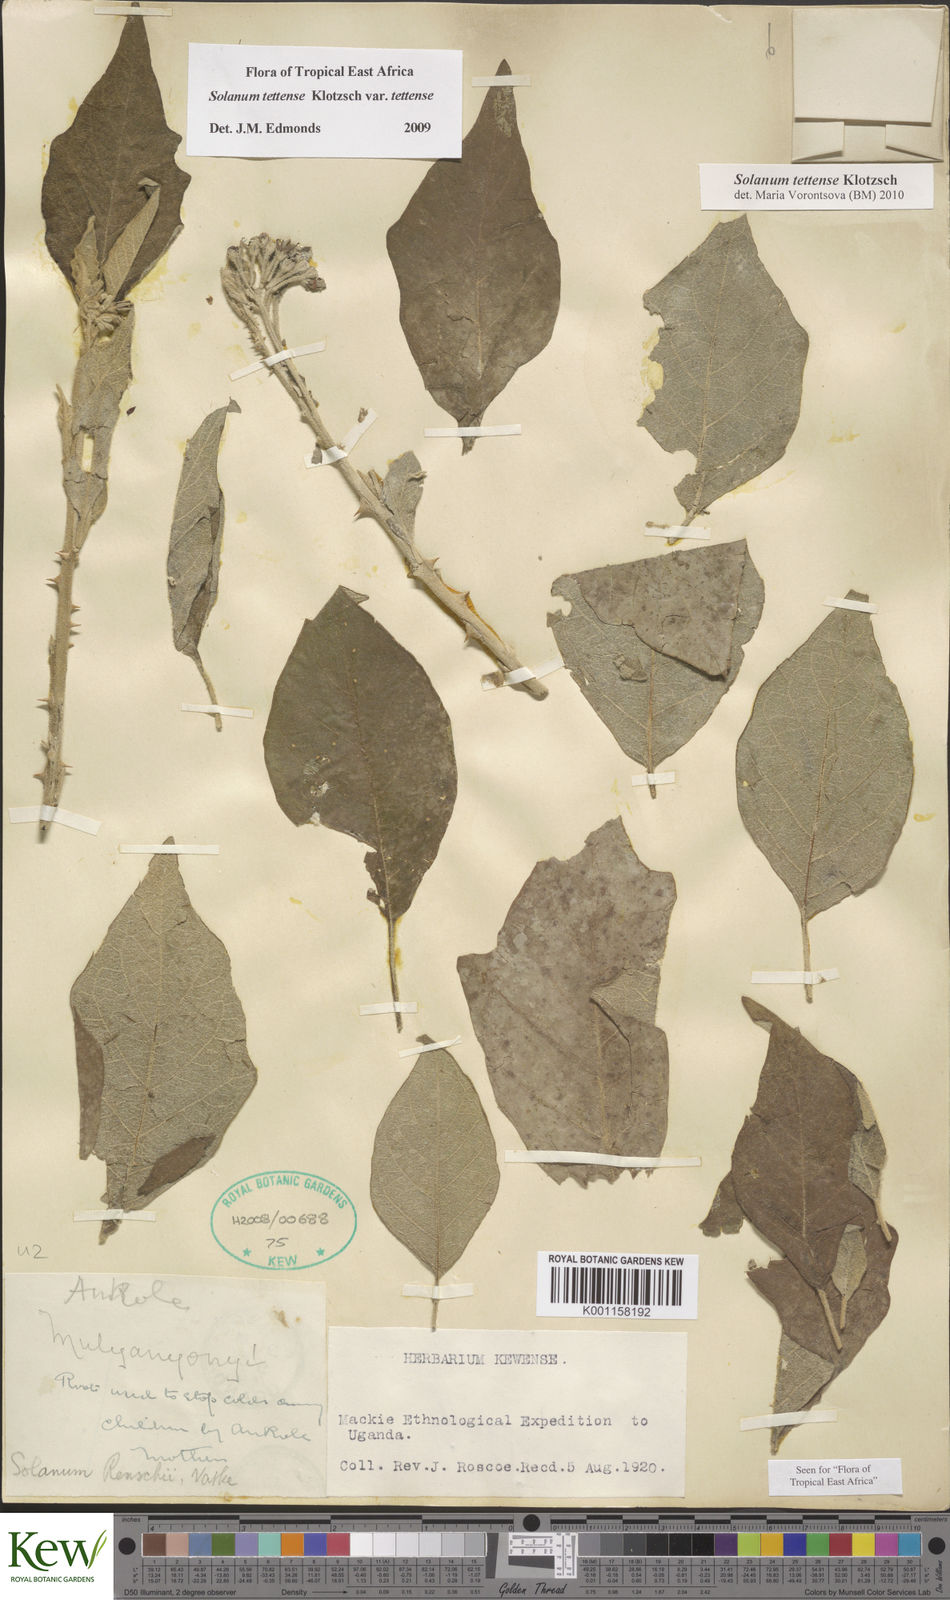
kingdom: Plantae
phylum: Tracheophyta
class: Magnoliopsida
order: Solanales
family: Solanaceae
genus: Solanum
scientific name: Solanum tettense
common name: Mozambique bitter apple
